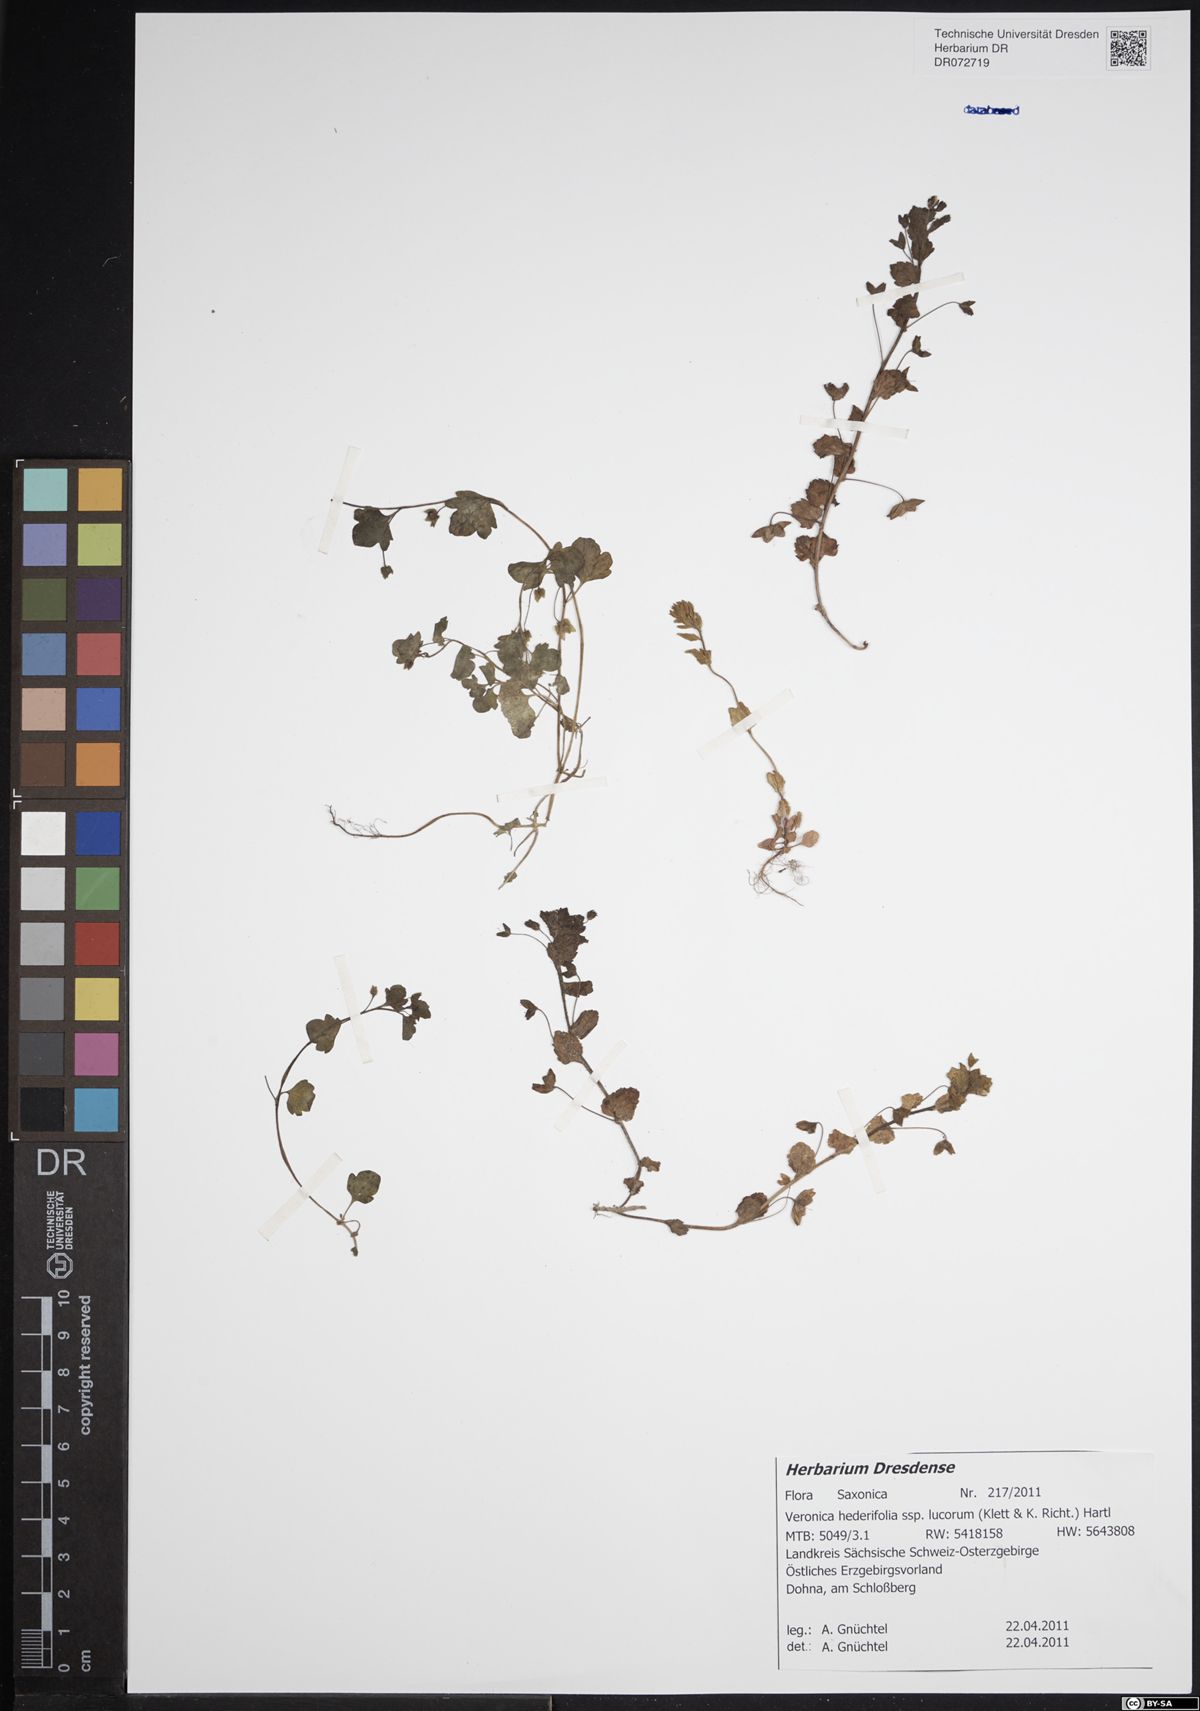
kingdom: Plantae
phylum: Tracheophyta
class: Magnoliopsida
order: Lamiales
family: Plantaginaceae
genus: Veronica
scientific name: Veronica hederifolia
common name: Ivy-leaved speedwell
